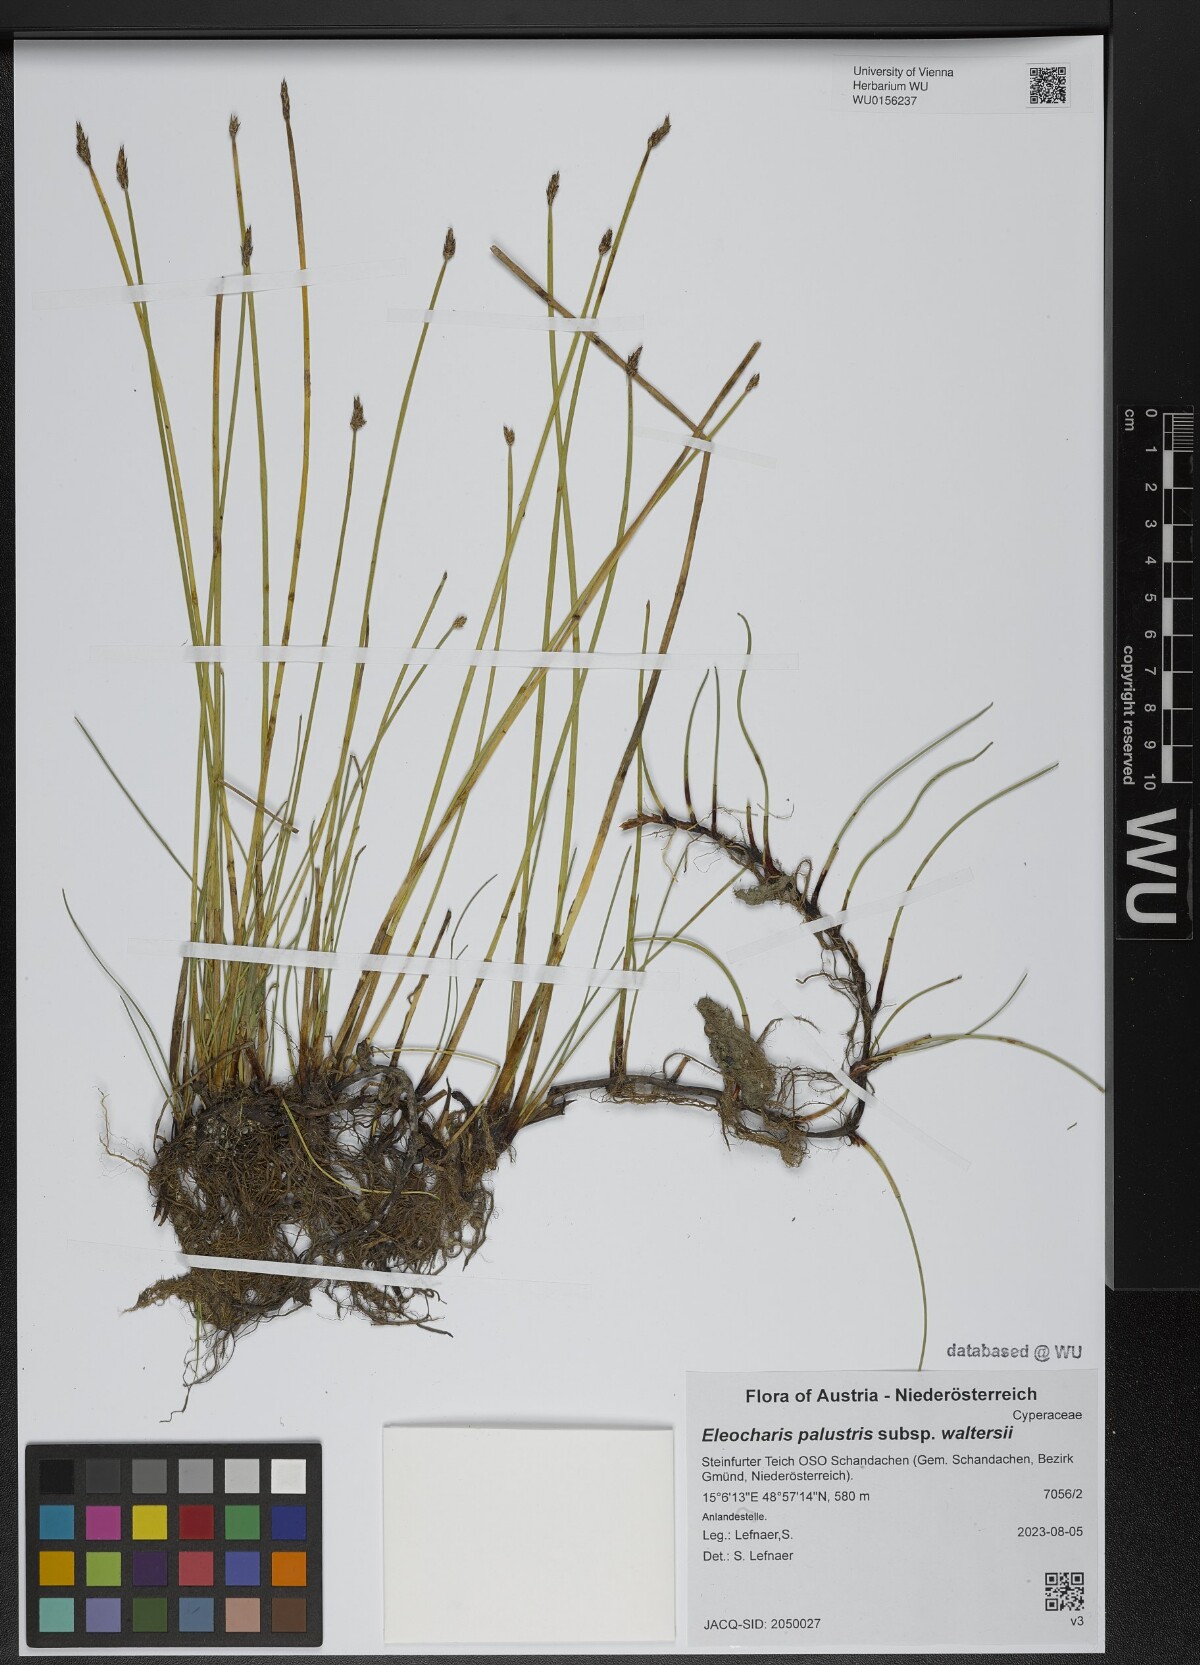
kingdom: Plantae
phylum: Tracheophyta
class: Liliopsida
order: Poales
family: Cyperaceae
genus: Eleocharis
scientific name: Eleocharis palustris
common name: Common spike-rush
